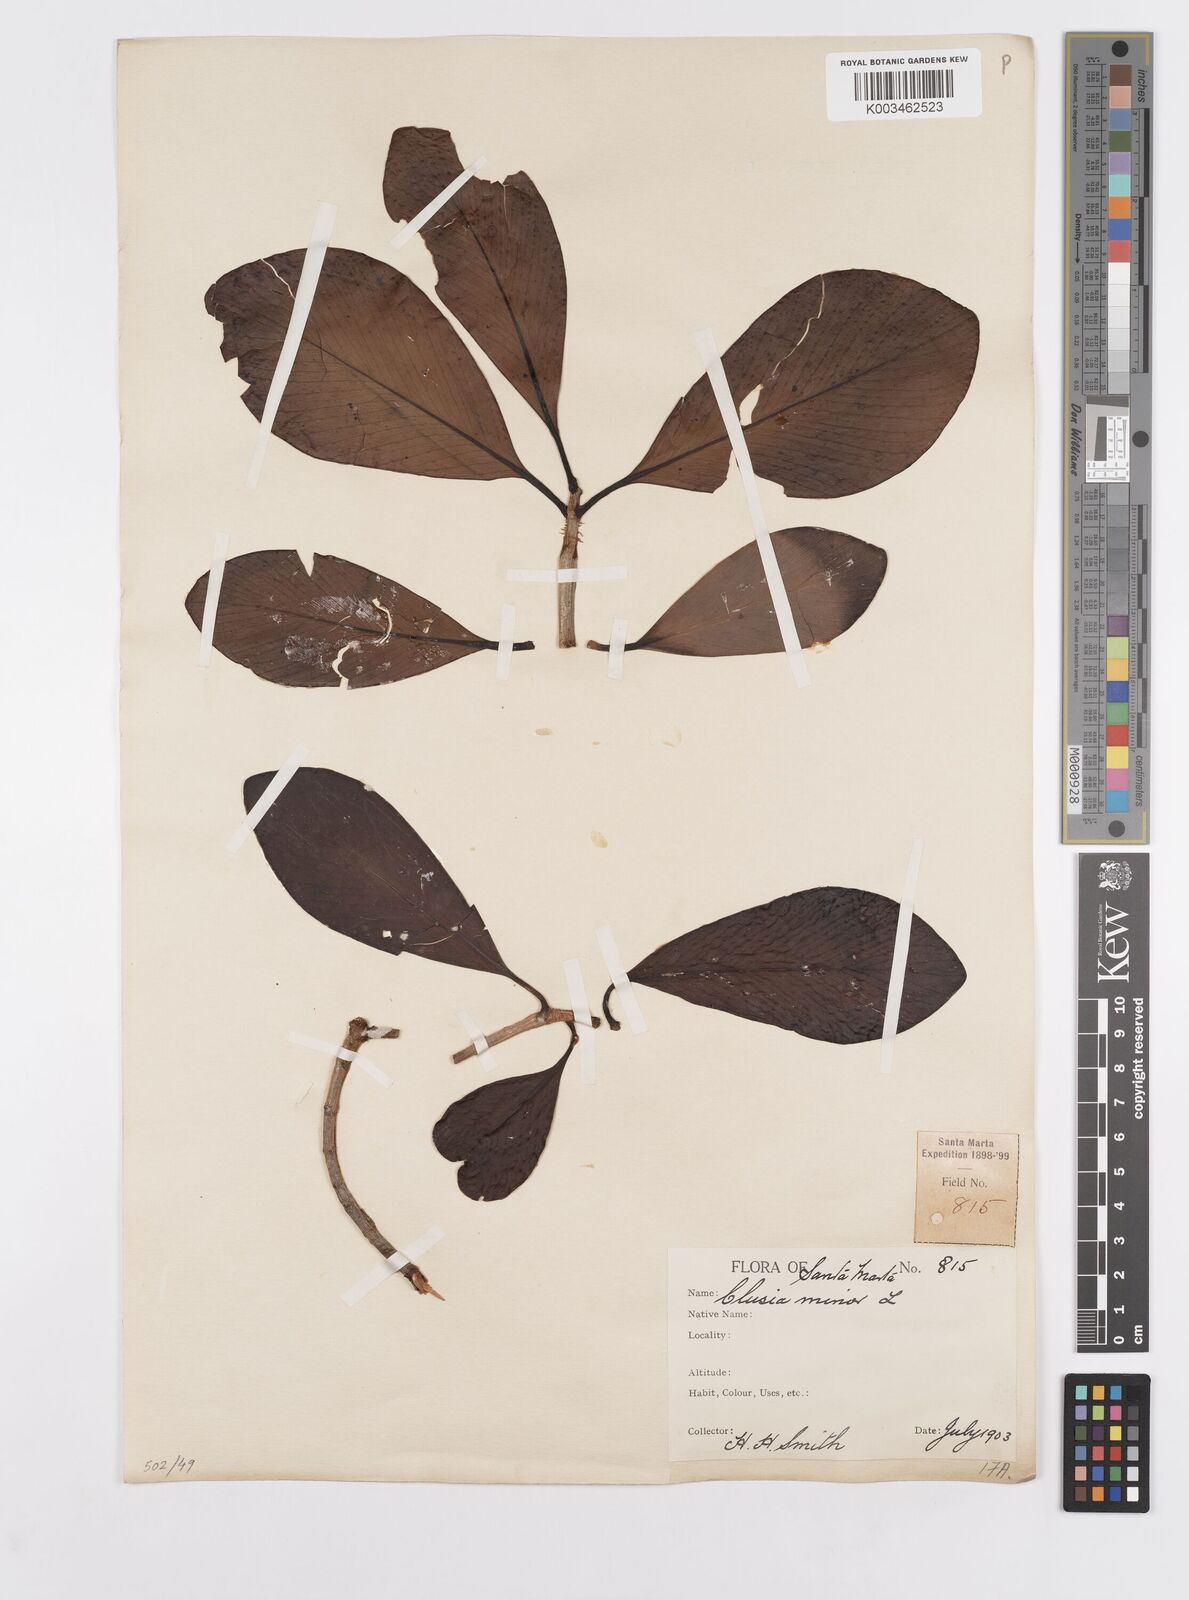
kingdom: Plantae
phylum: Tracheophyta
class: Magnoliopsida
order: Malpighiales
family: Clusiaceae
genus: Clusia
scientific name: Clusia minor
